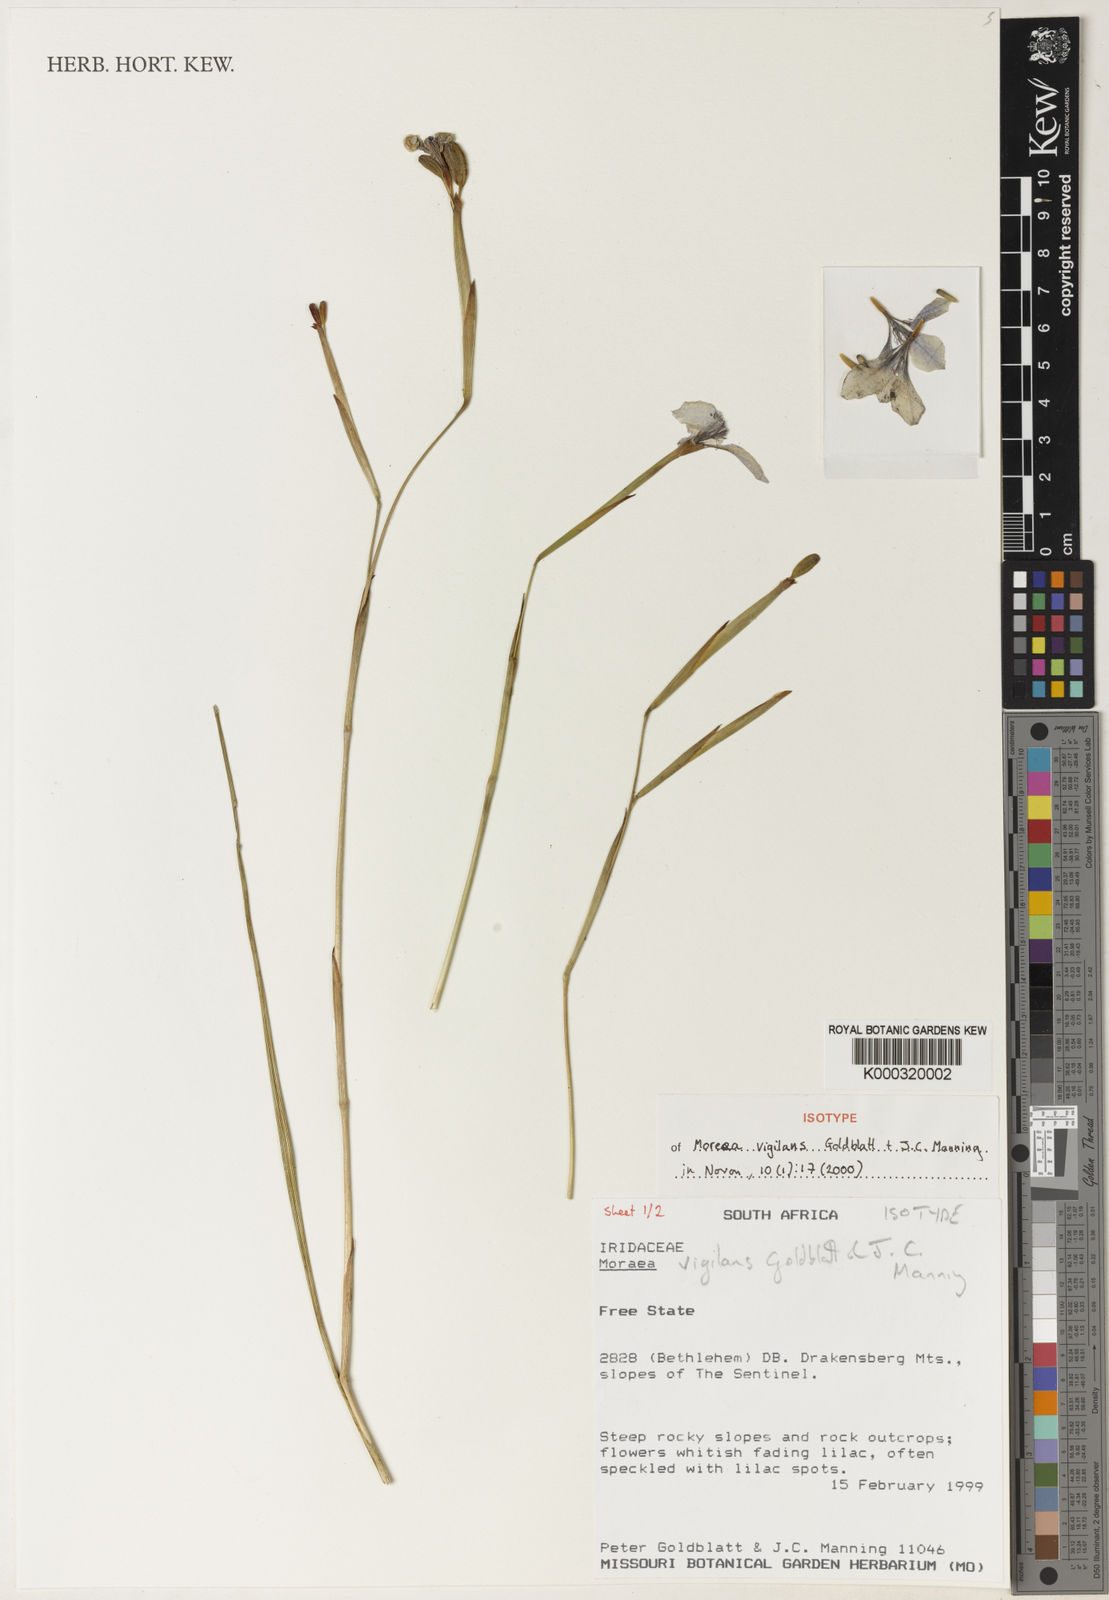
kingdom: Plantae
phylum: Tracheophyta
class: Liliopsida
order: Asparagales
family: Iridaceae
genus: Moraea
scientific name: Moraea vigilans
